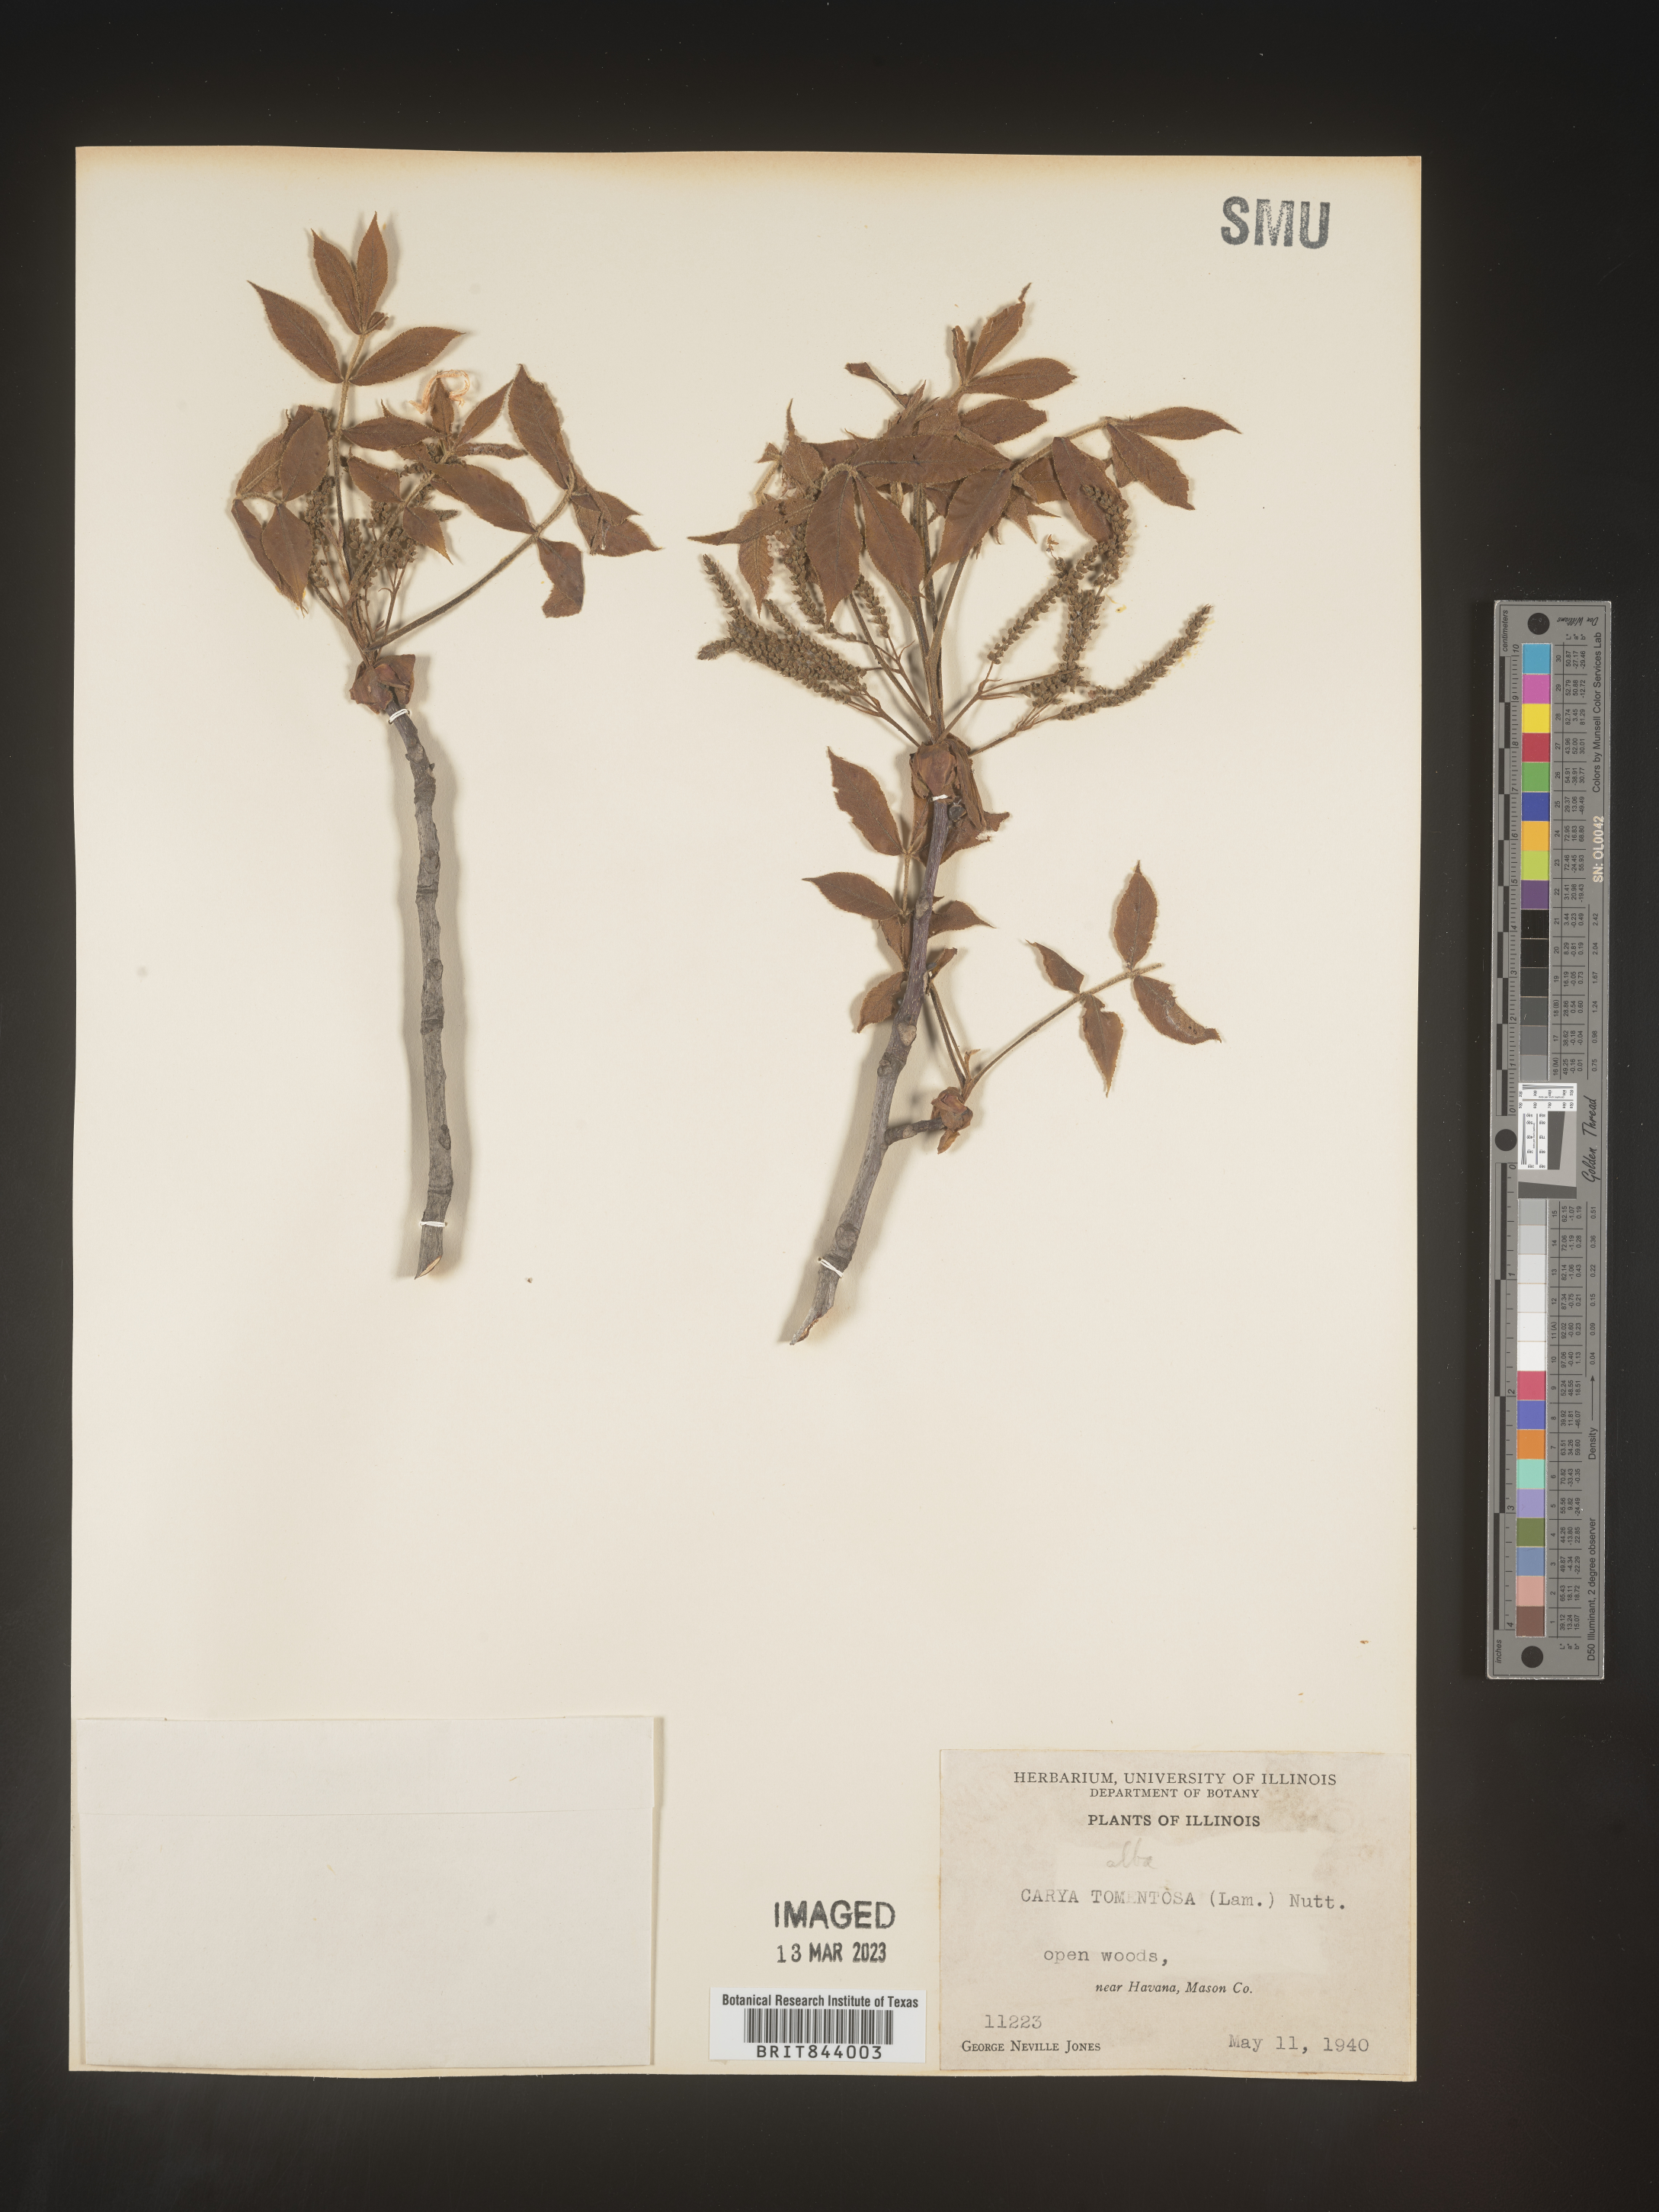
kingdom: Plantae
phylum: Tracheophyta
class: Magnoliopsida
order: Fagales
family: Juglandaceae
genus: Carya
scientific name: Carya alba
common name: Mockernut hickory
